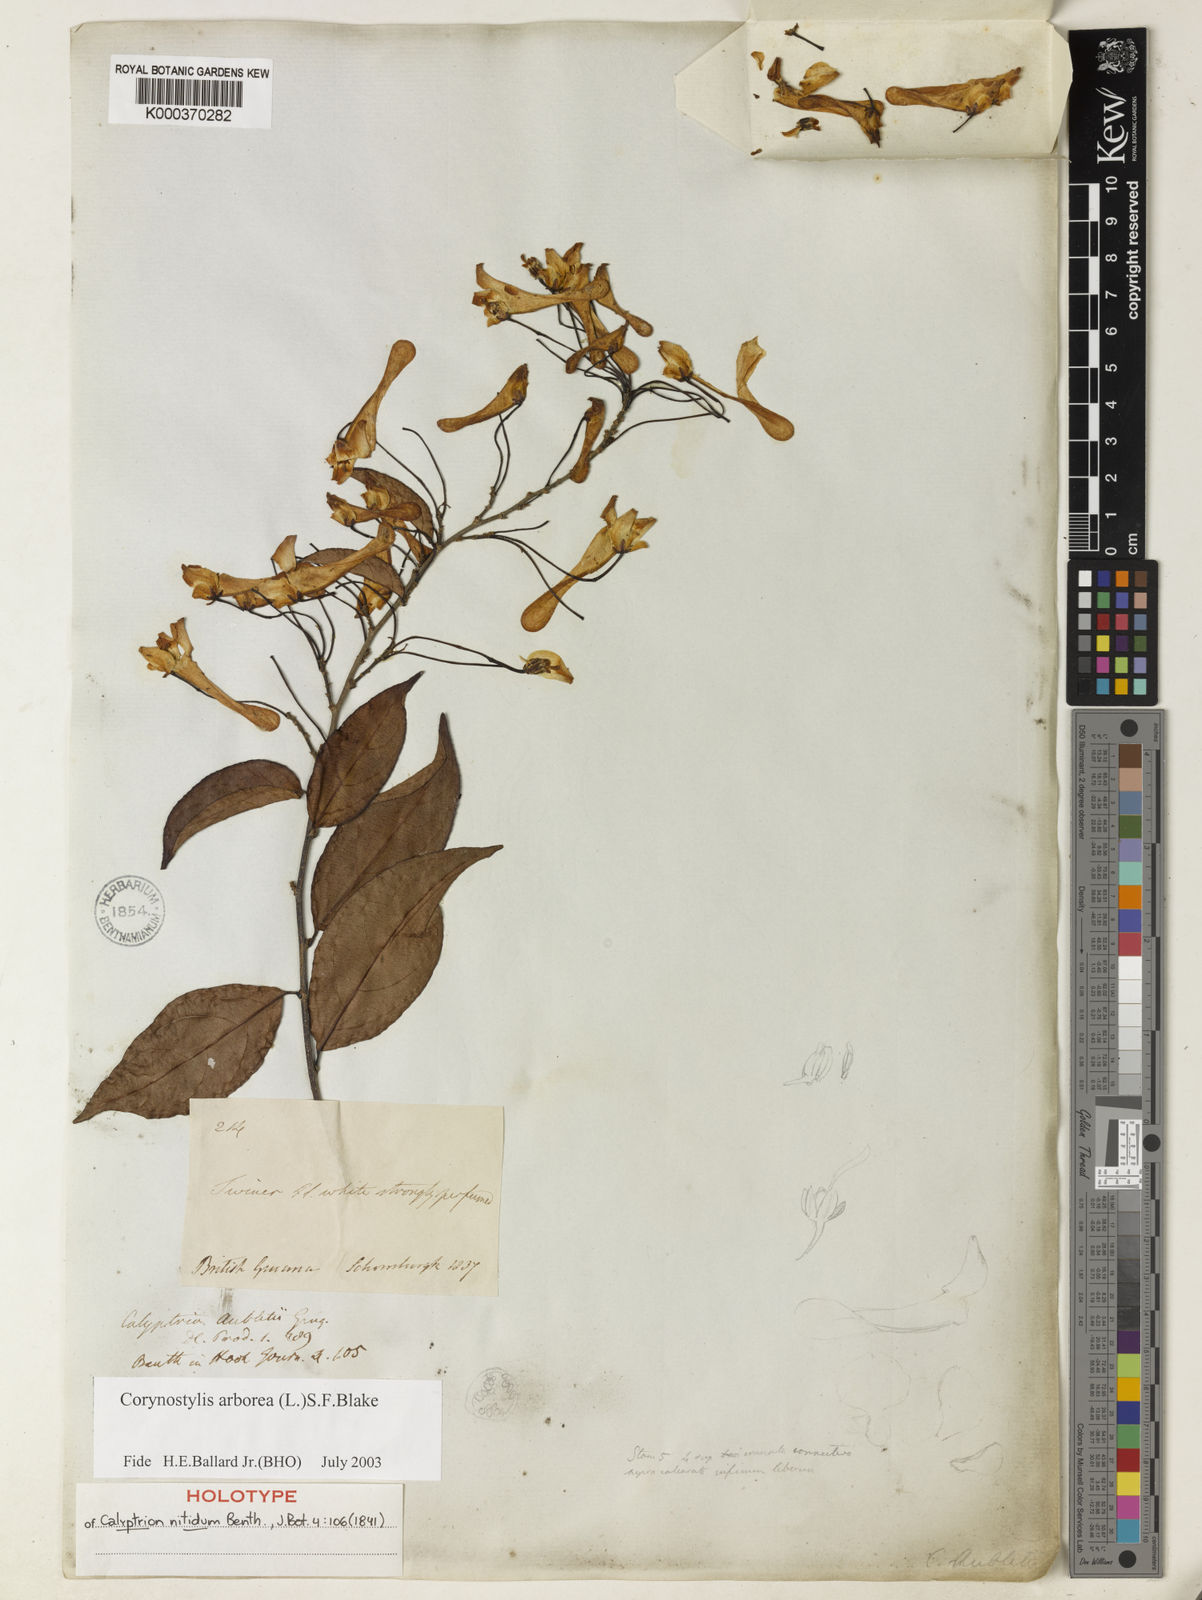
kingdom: Plantae
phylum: Tracheophyta
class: Magnoliopsida
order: Malpighiales
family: Violaceae
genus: Calyptrion
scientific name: Calyptrion arboreum
